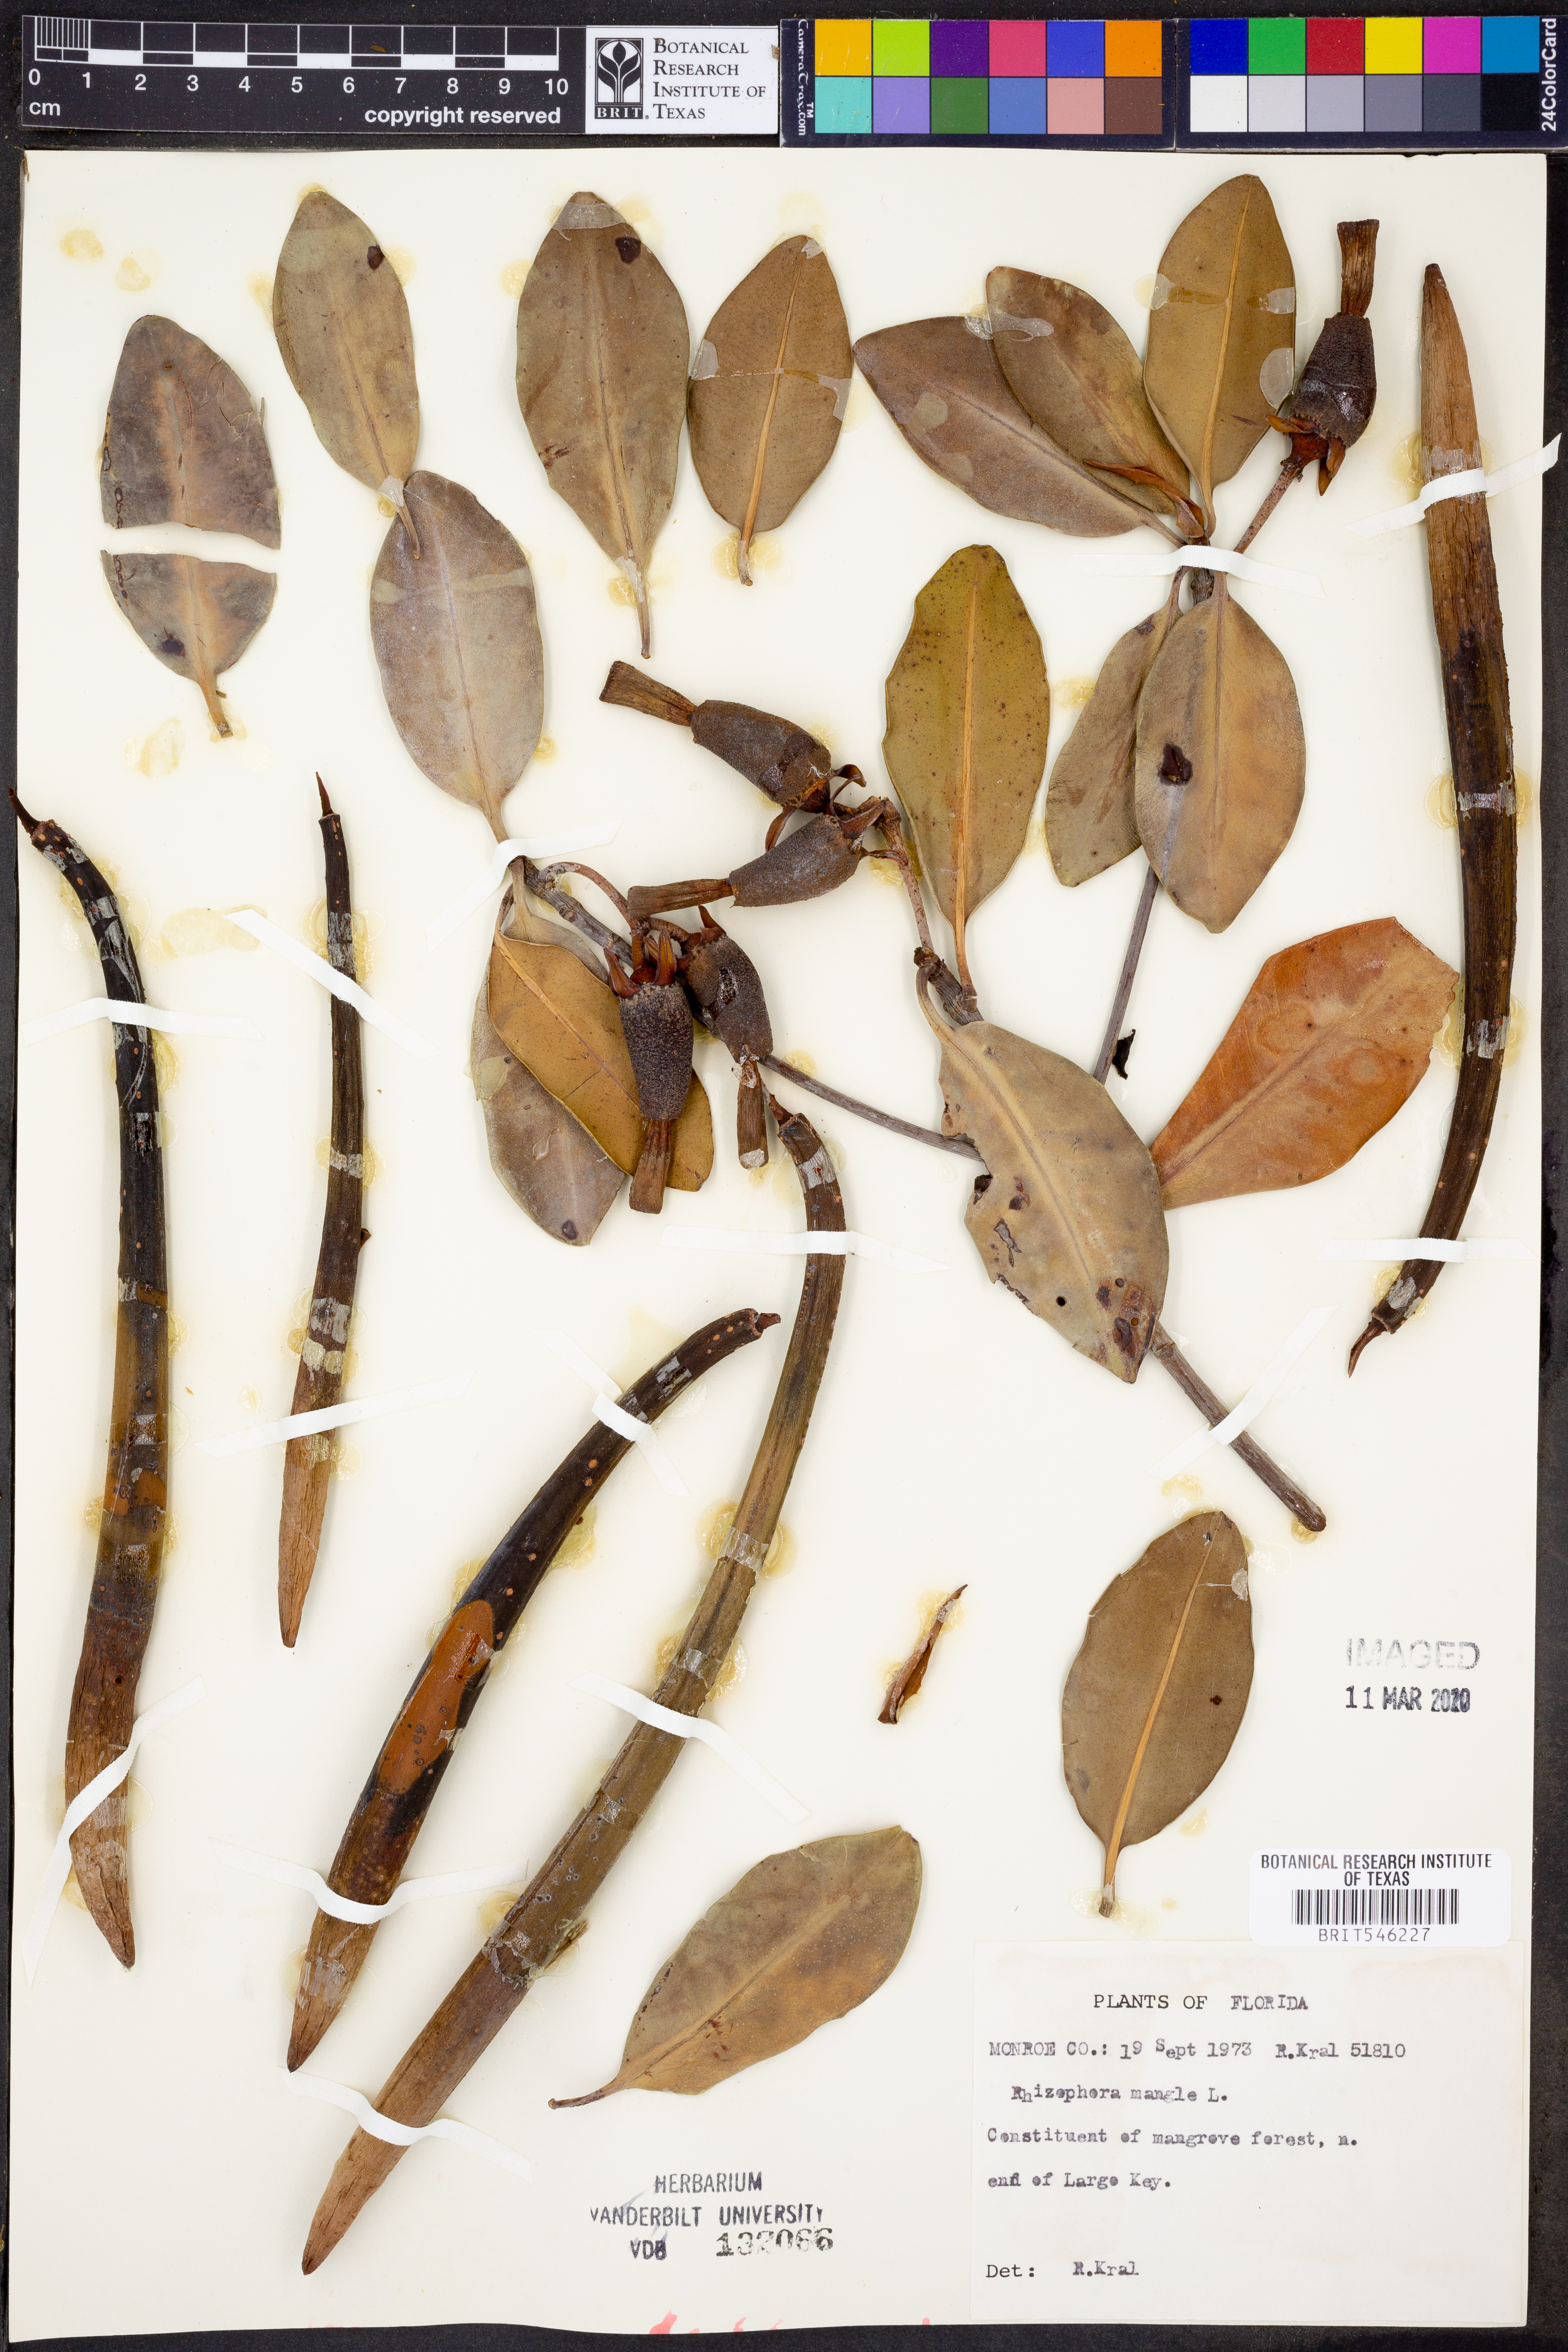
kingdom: Plantae
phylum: Tracheophyta
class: Magnoliopsida
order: Malpighiales
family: Rhizophoraceae
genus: Rhizophora
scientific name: Rhizophora mucronata
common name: Loop-root mangrove
